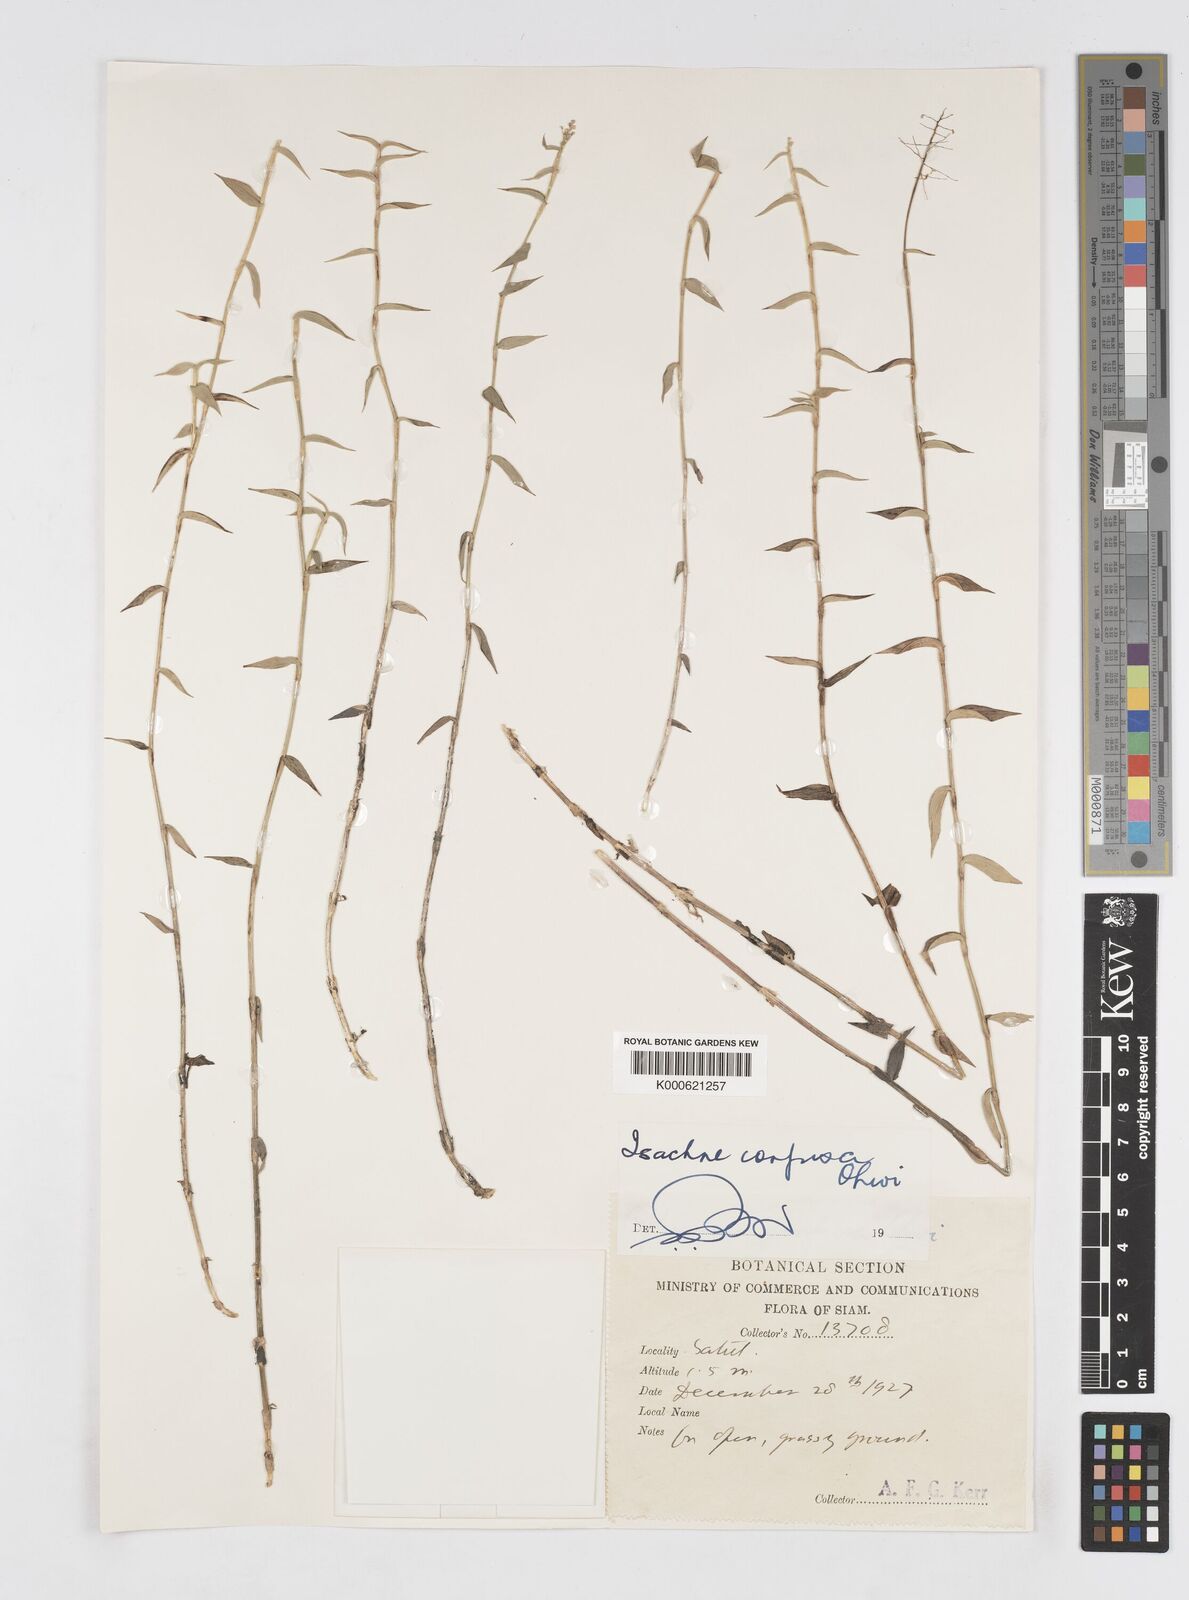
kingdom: Plantae
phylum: Tracheophyta
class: Liliopsida
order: Poales
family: Poaceae
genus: Isachne
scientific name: Isachne confusa
